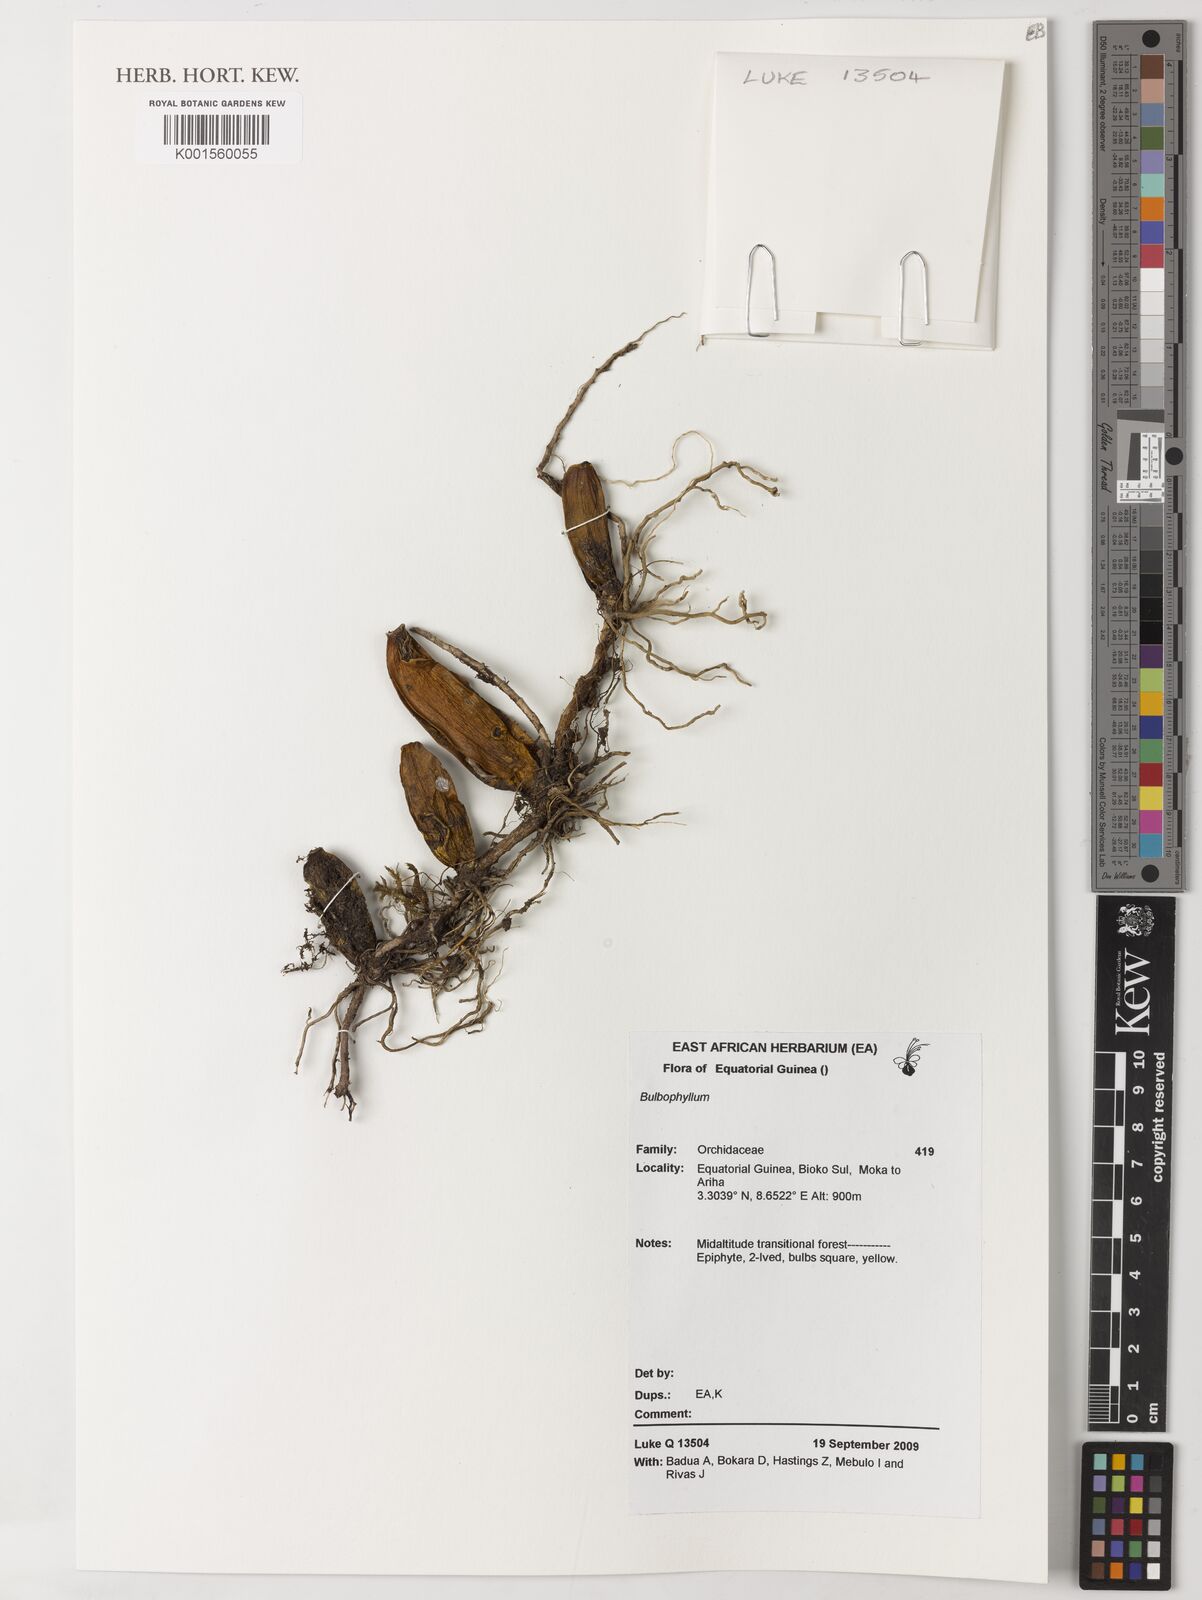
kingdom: Plantae
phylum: Tracheophyta
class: Liliopsida
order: Asparagales
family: Orchidaceae
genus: Bulbophyllum
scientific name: Bulbophyllum
